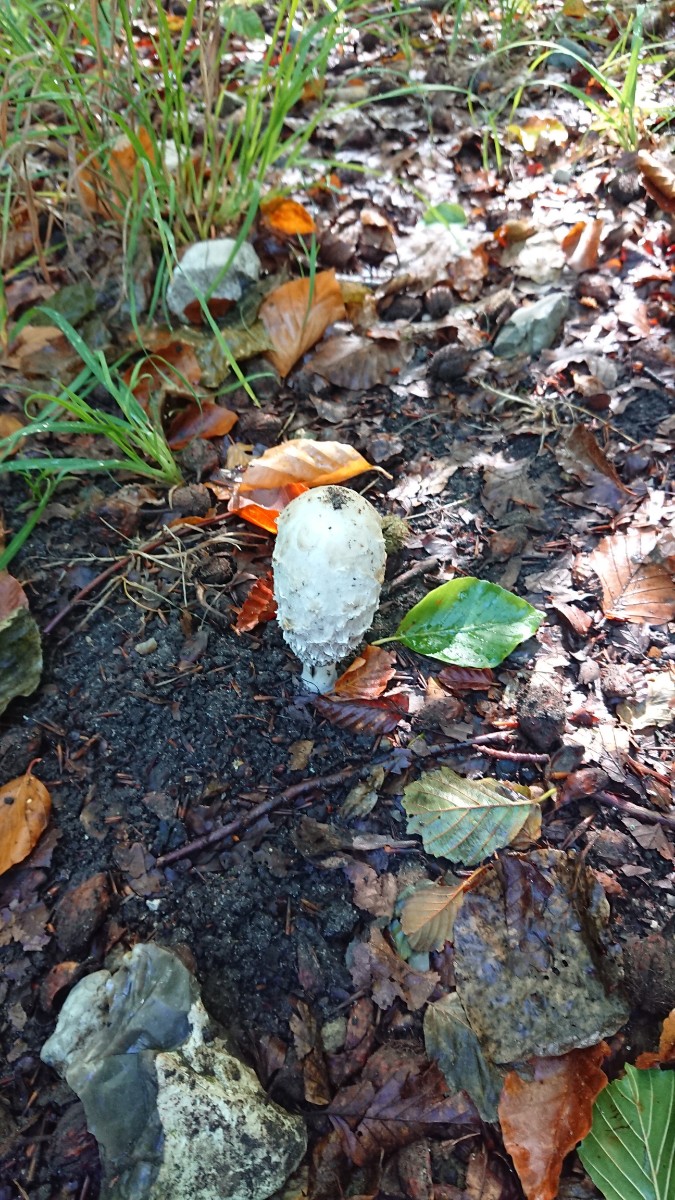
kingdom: Fungi
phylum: Basidiomycota
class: Agaricomycetes
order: Agaricales
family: Agaricaceae
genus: Coprinus
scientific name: Coprinus comatus
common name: stor parykhat
